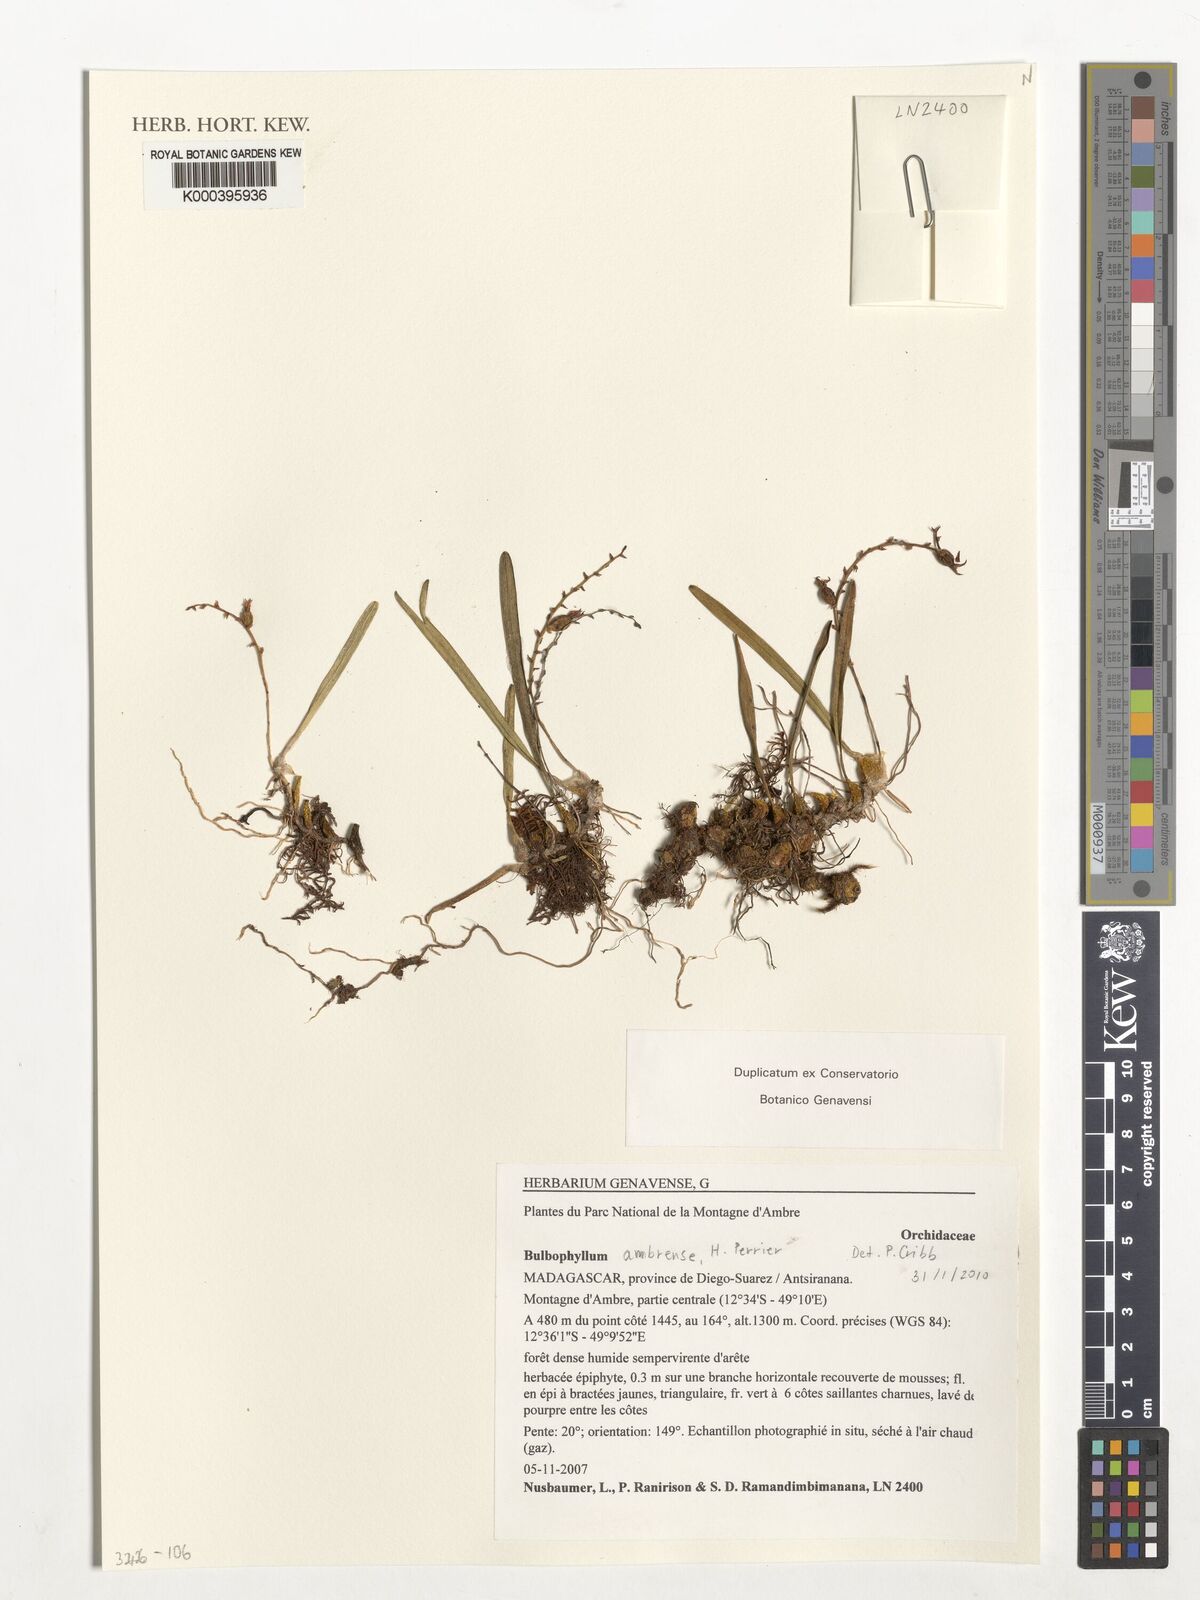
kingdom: Plantae
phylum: Tracheophyta
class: Liliopsida
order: Asparagales
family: Orchidaceae
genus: Bulbophyllum
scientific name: Bulbophyllum ambrense
